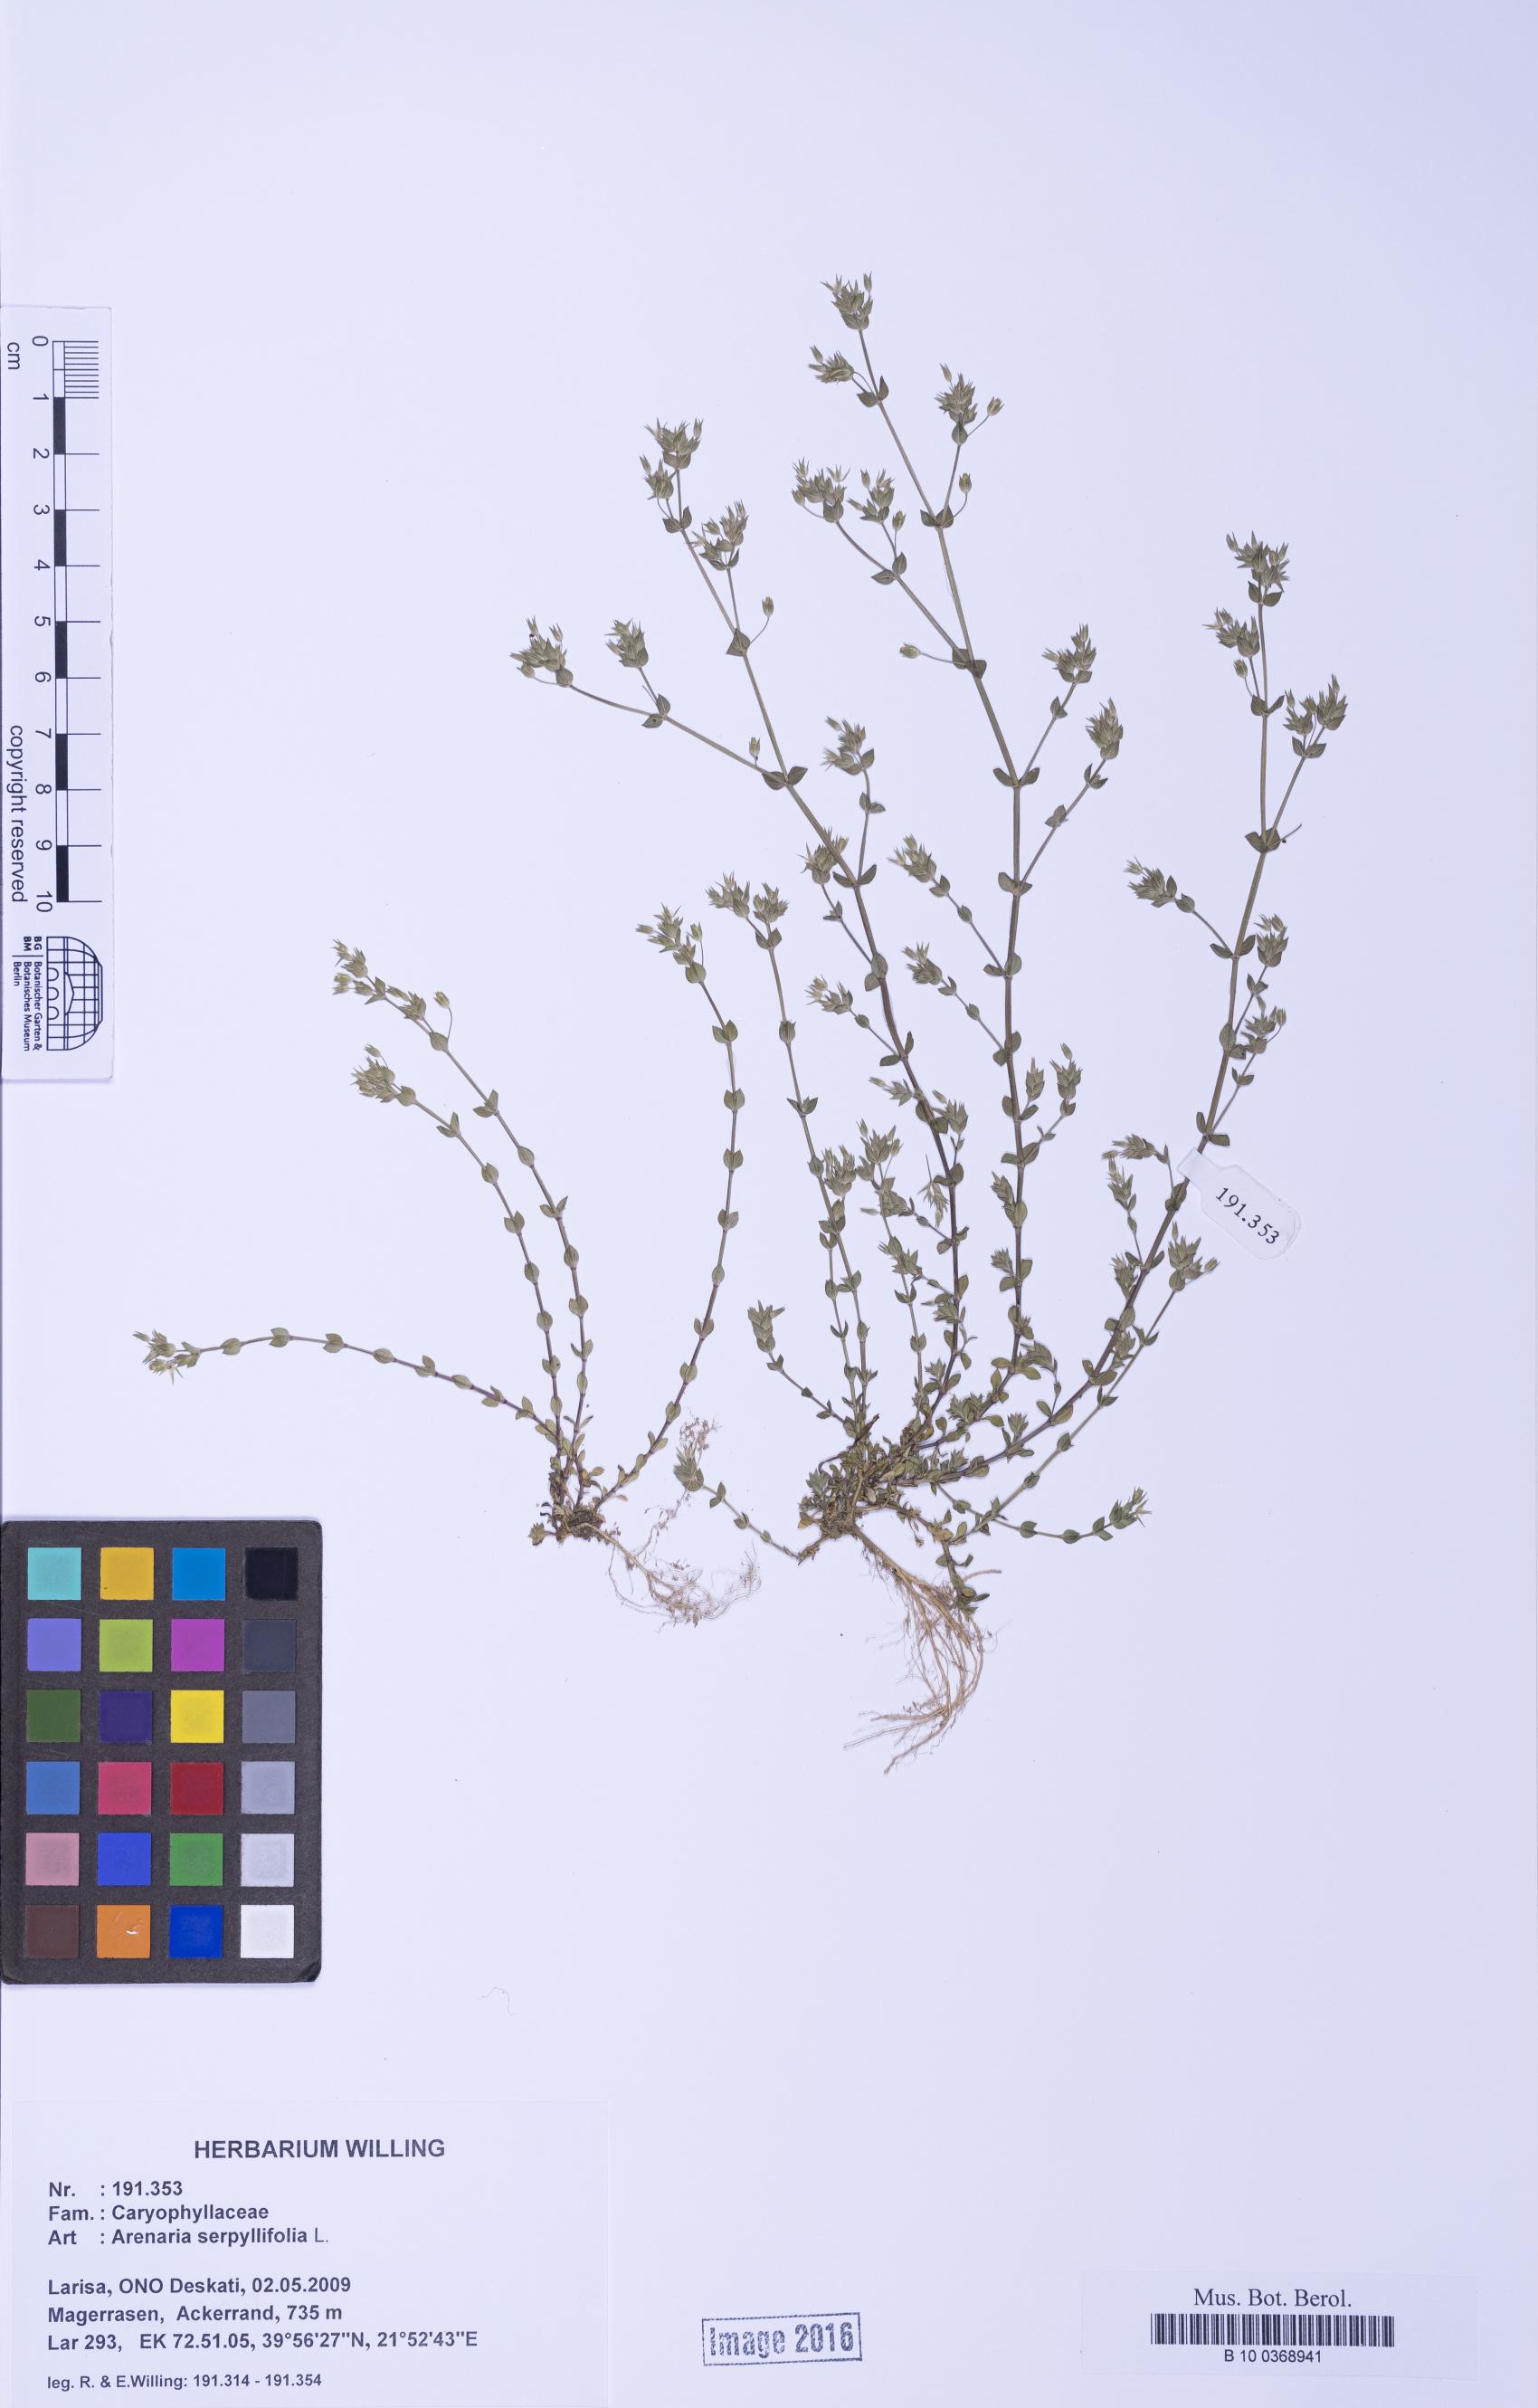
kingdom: Plantae
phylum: Tracheophyta
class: Magnoliopsida
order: Caryophyllales
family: Caryophyllaceae
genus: Arenaria
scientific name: Arenaria serpyllifolia
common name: Thyme-leaved sandwort
